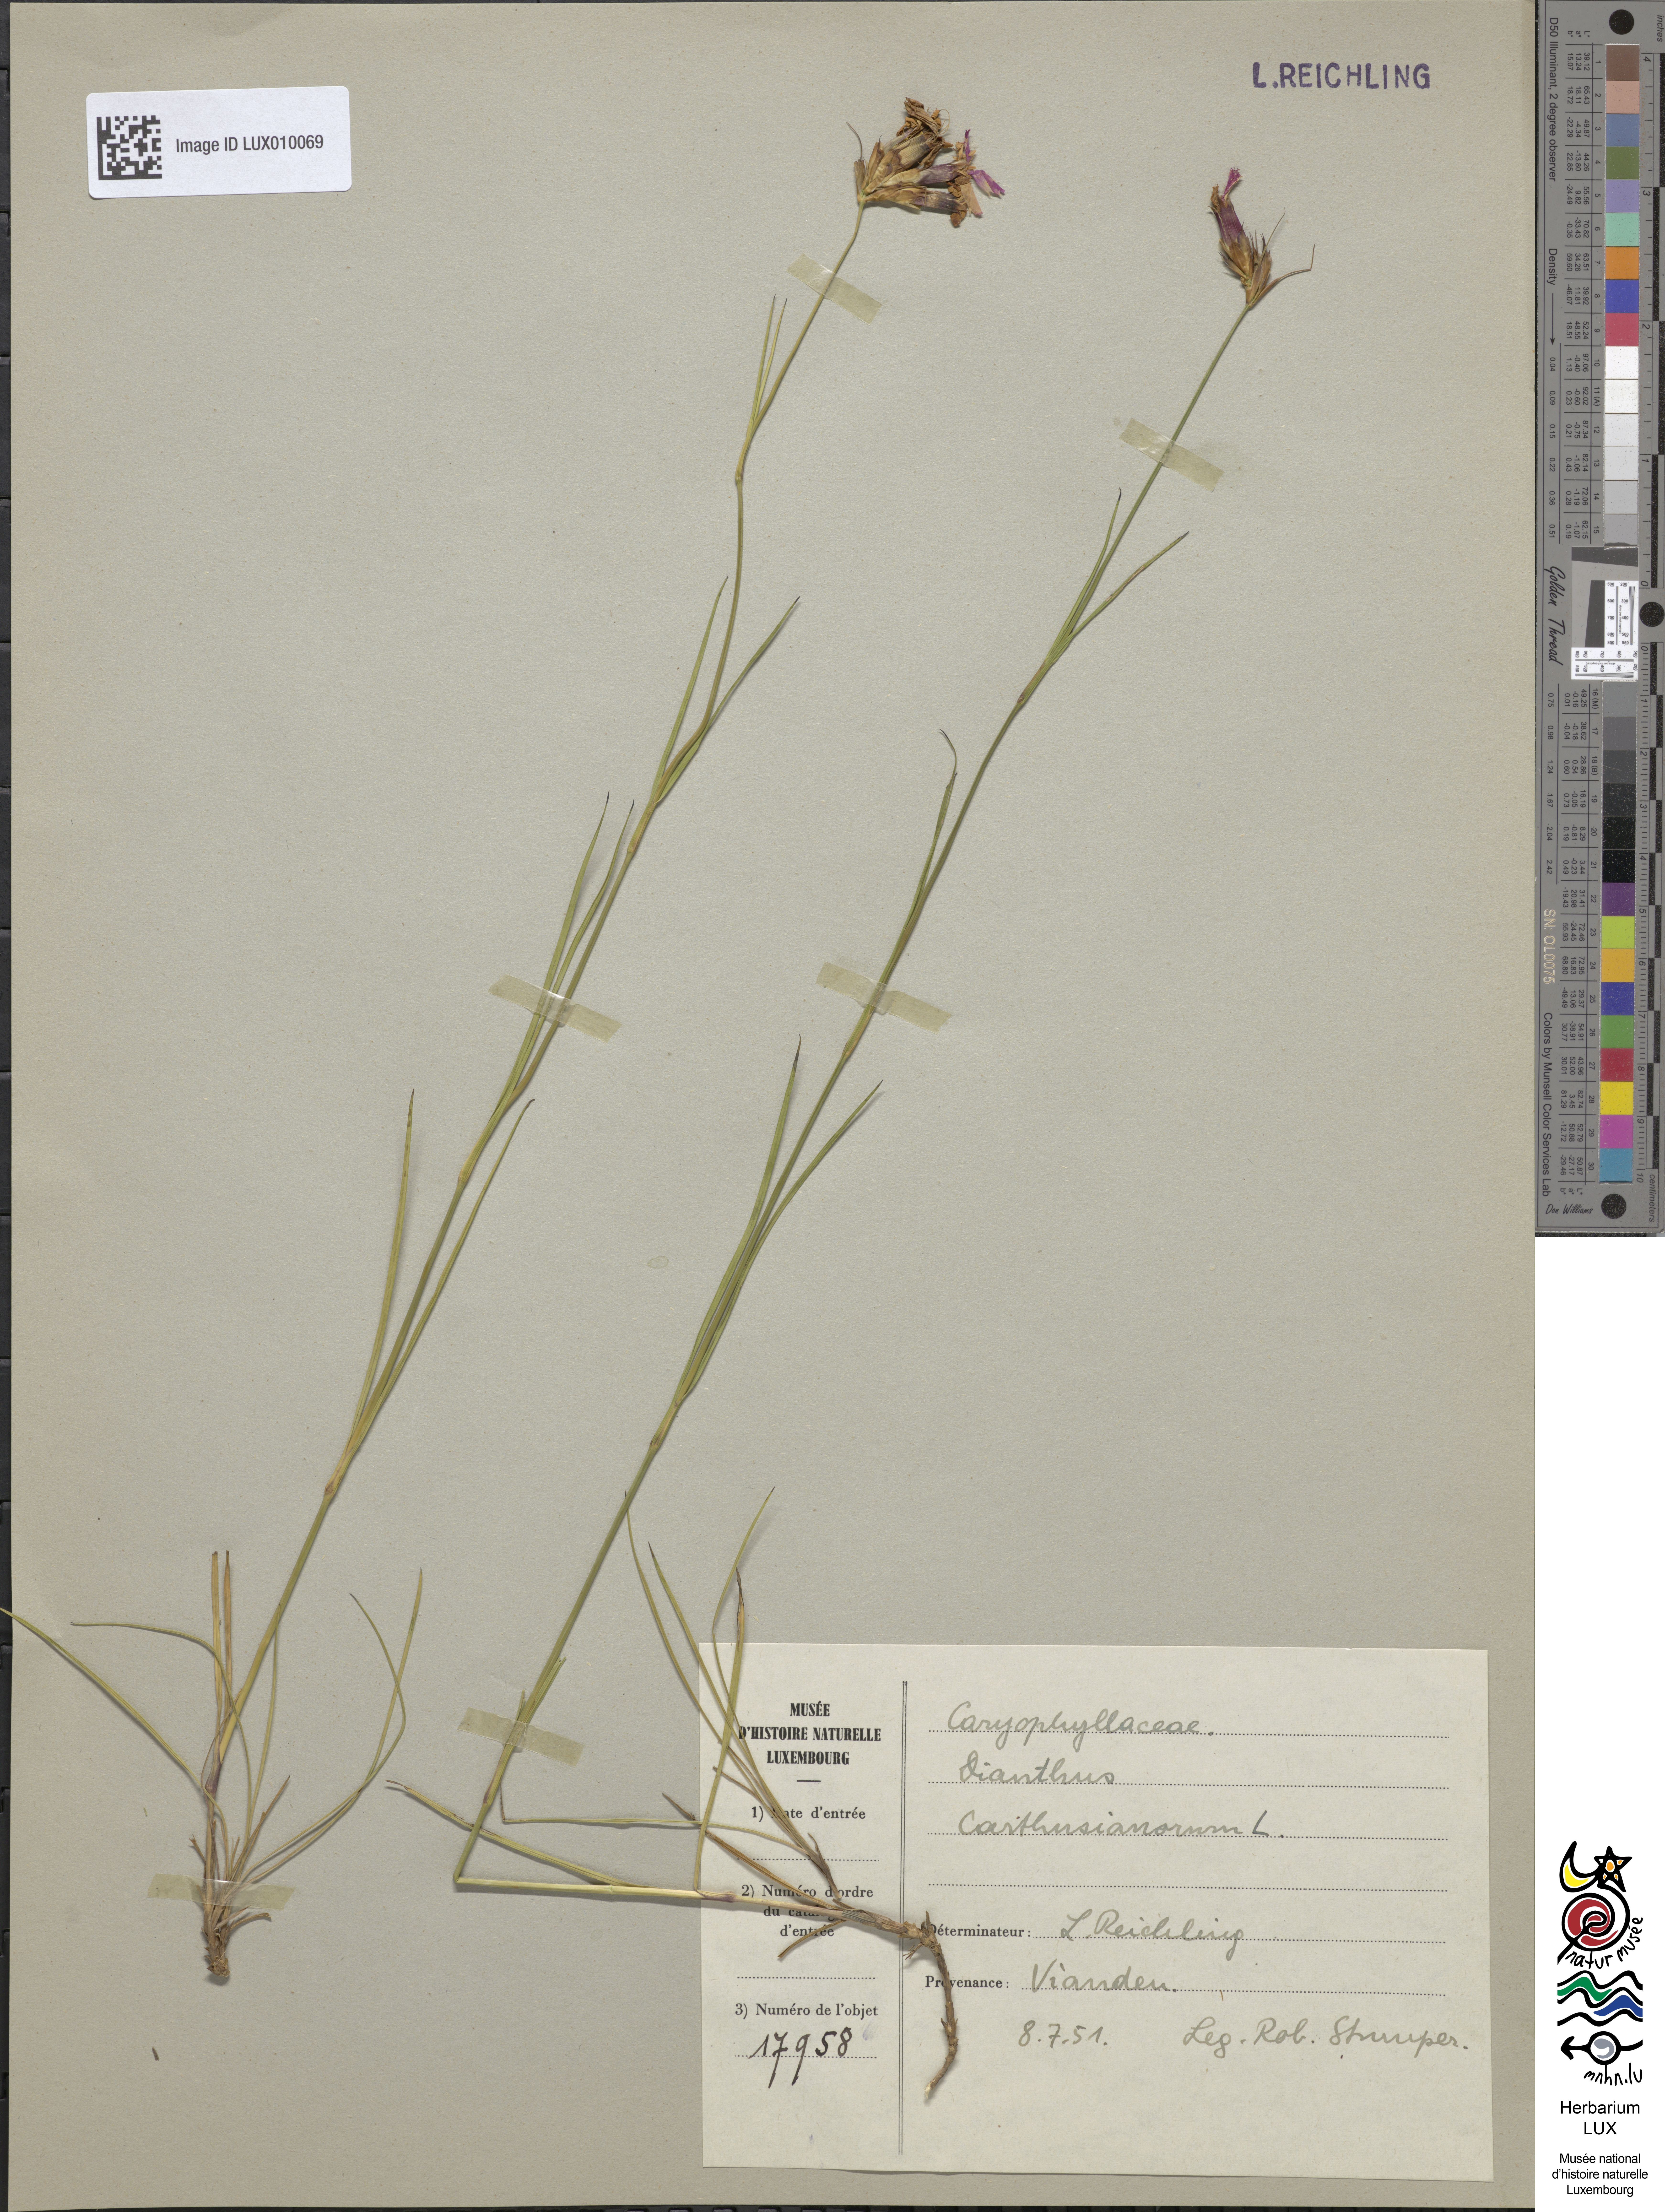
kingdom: Plantae
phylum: Tracheophyta
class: Magnoliopsida
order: Caryophyllales
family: Caryophyllaceae
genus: Dianthus
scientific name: Dianthus carthusianorum
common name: Carthusian pink
